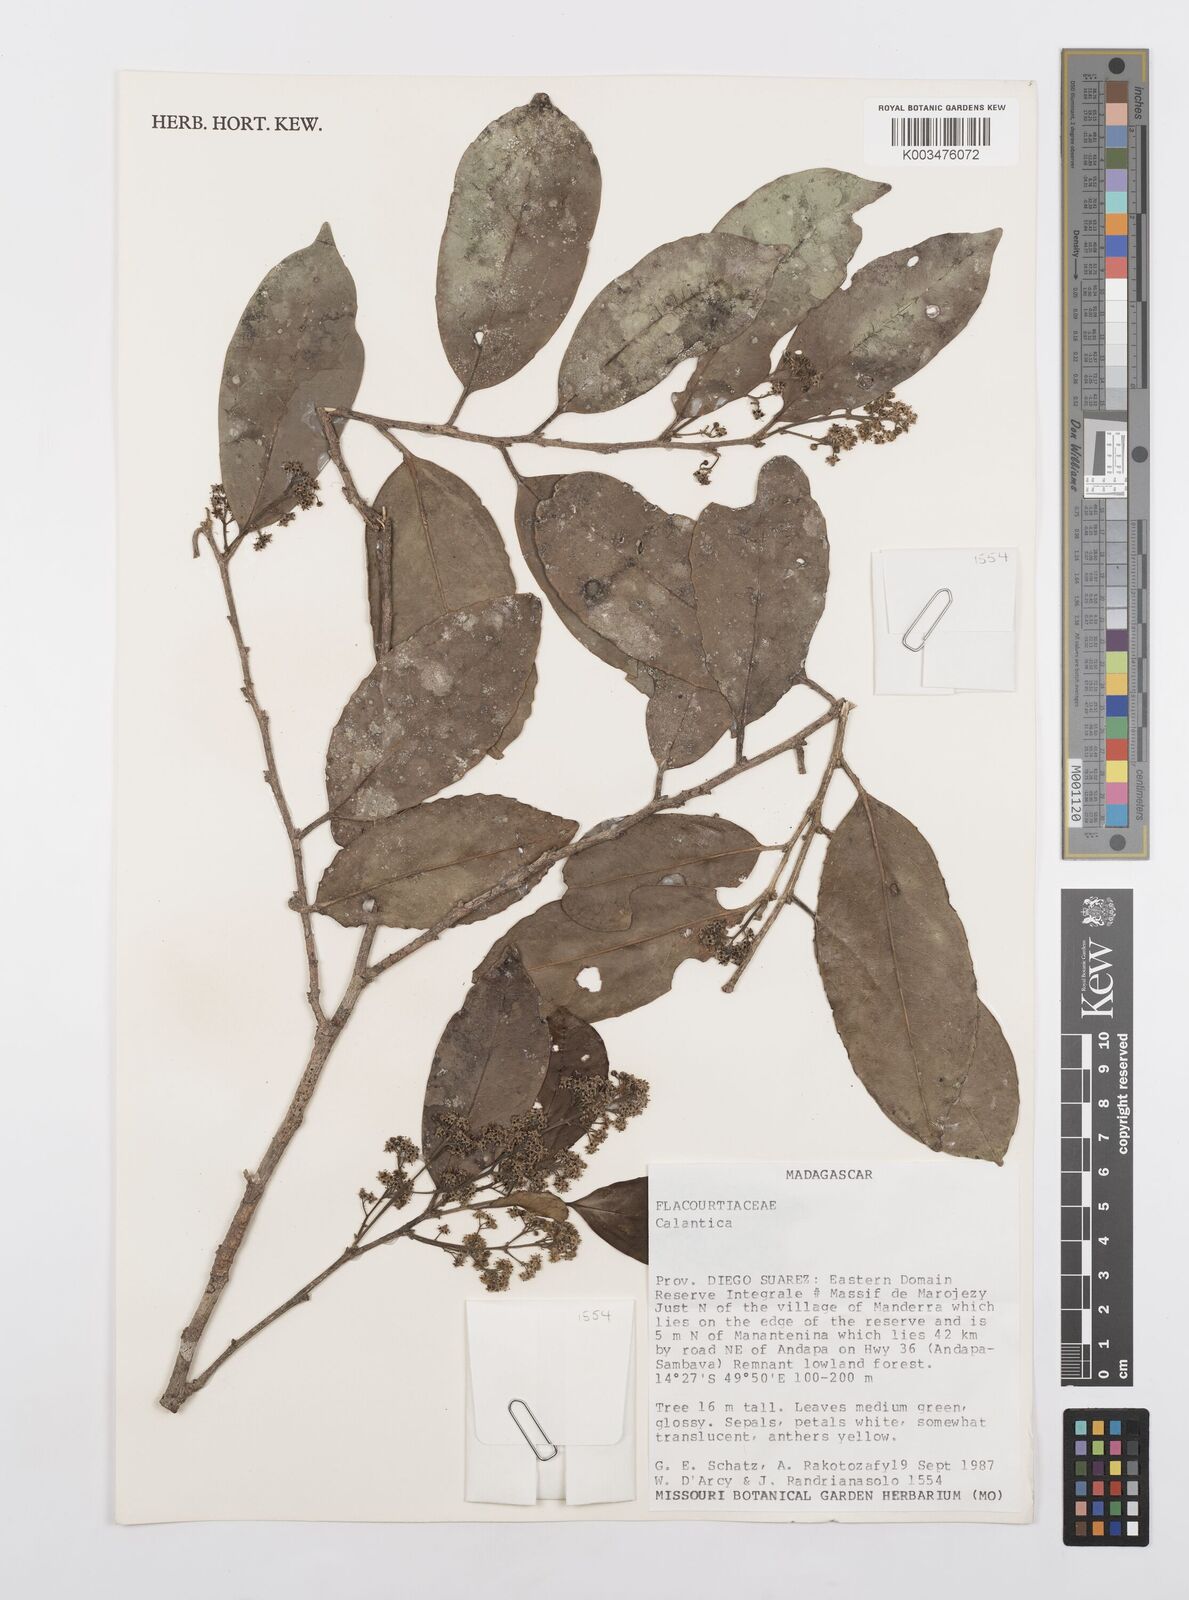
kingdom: Plantae
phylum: Tracheophyta
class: Magnoliopsida
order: Malpighiales
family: Salicaceae
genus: Calantica
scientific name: Calantica
